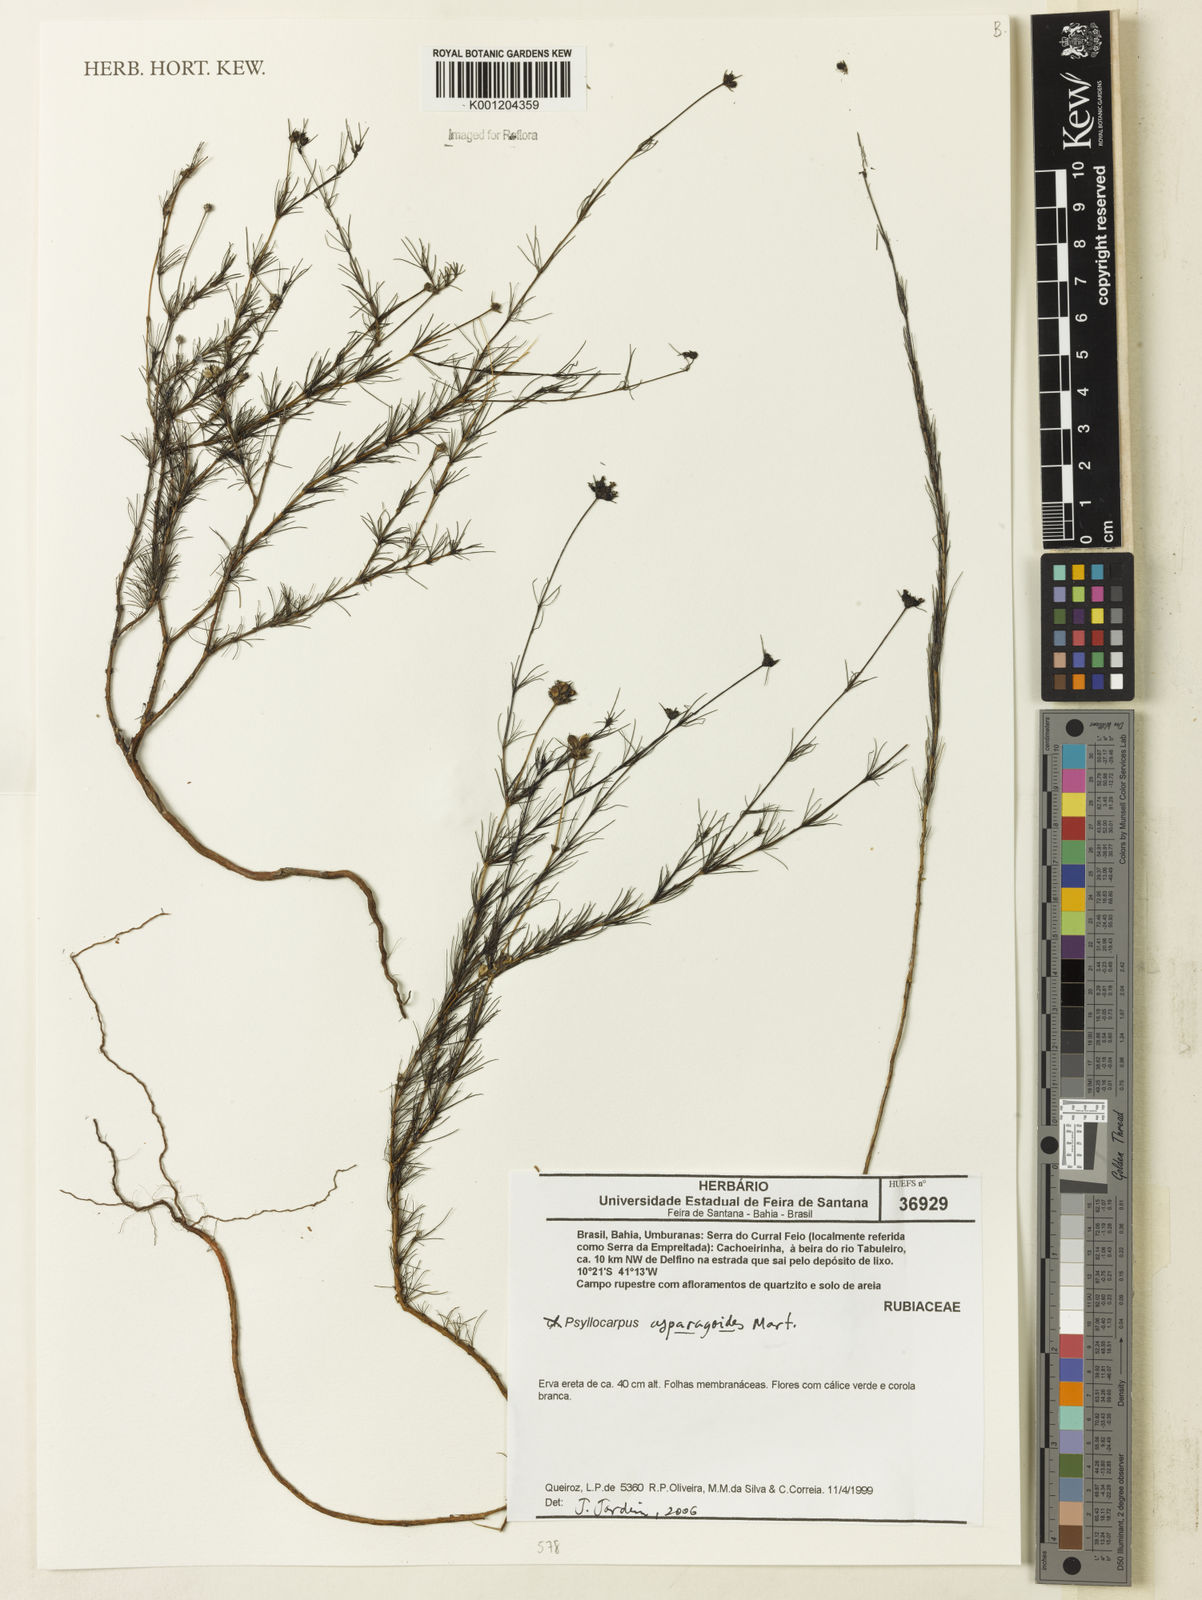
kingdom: Plantae
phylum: Tracheophyta
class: Magnoliopsida
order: Gentianales
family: Rubiaceae
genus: Psyllocarpus
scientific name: Psyllocarpus asparagoides
